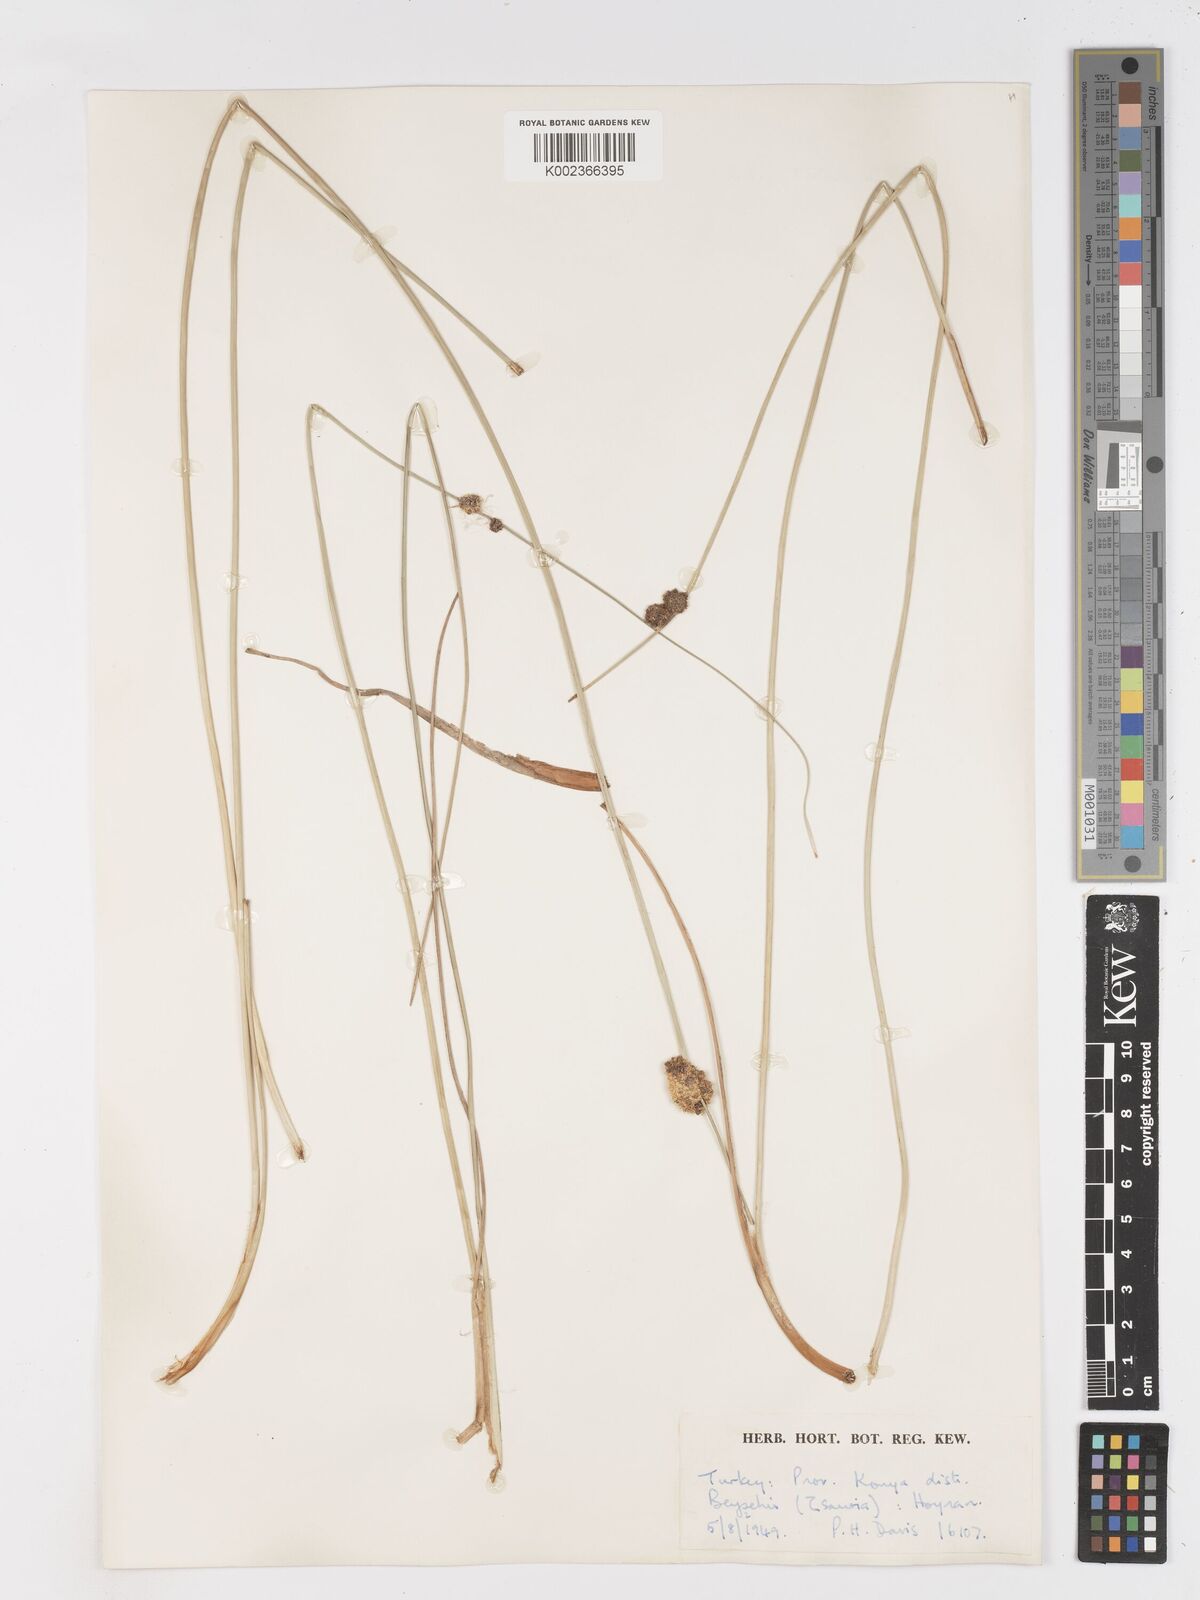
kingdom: Plantae
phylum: Tracheophyta
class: Liliopsida
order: Poales
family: Cyperaceae
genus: Scirpoides
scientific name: Scirpoides holoschoenus
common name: Round-headed club-rush
